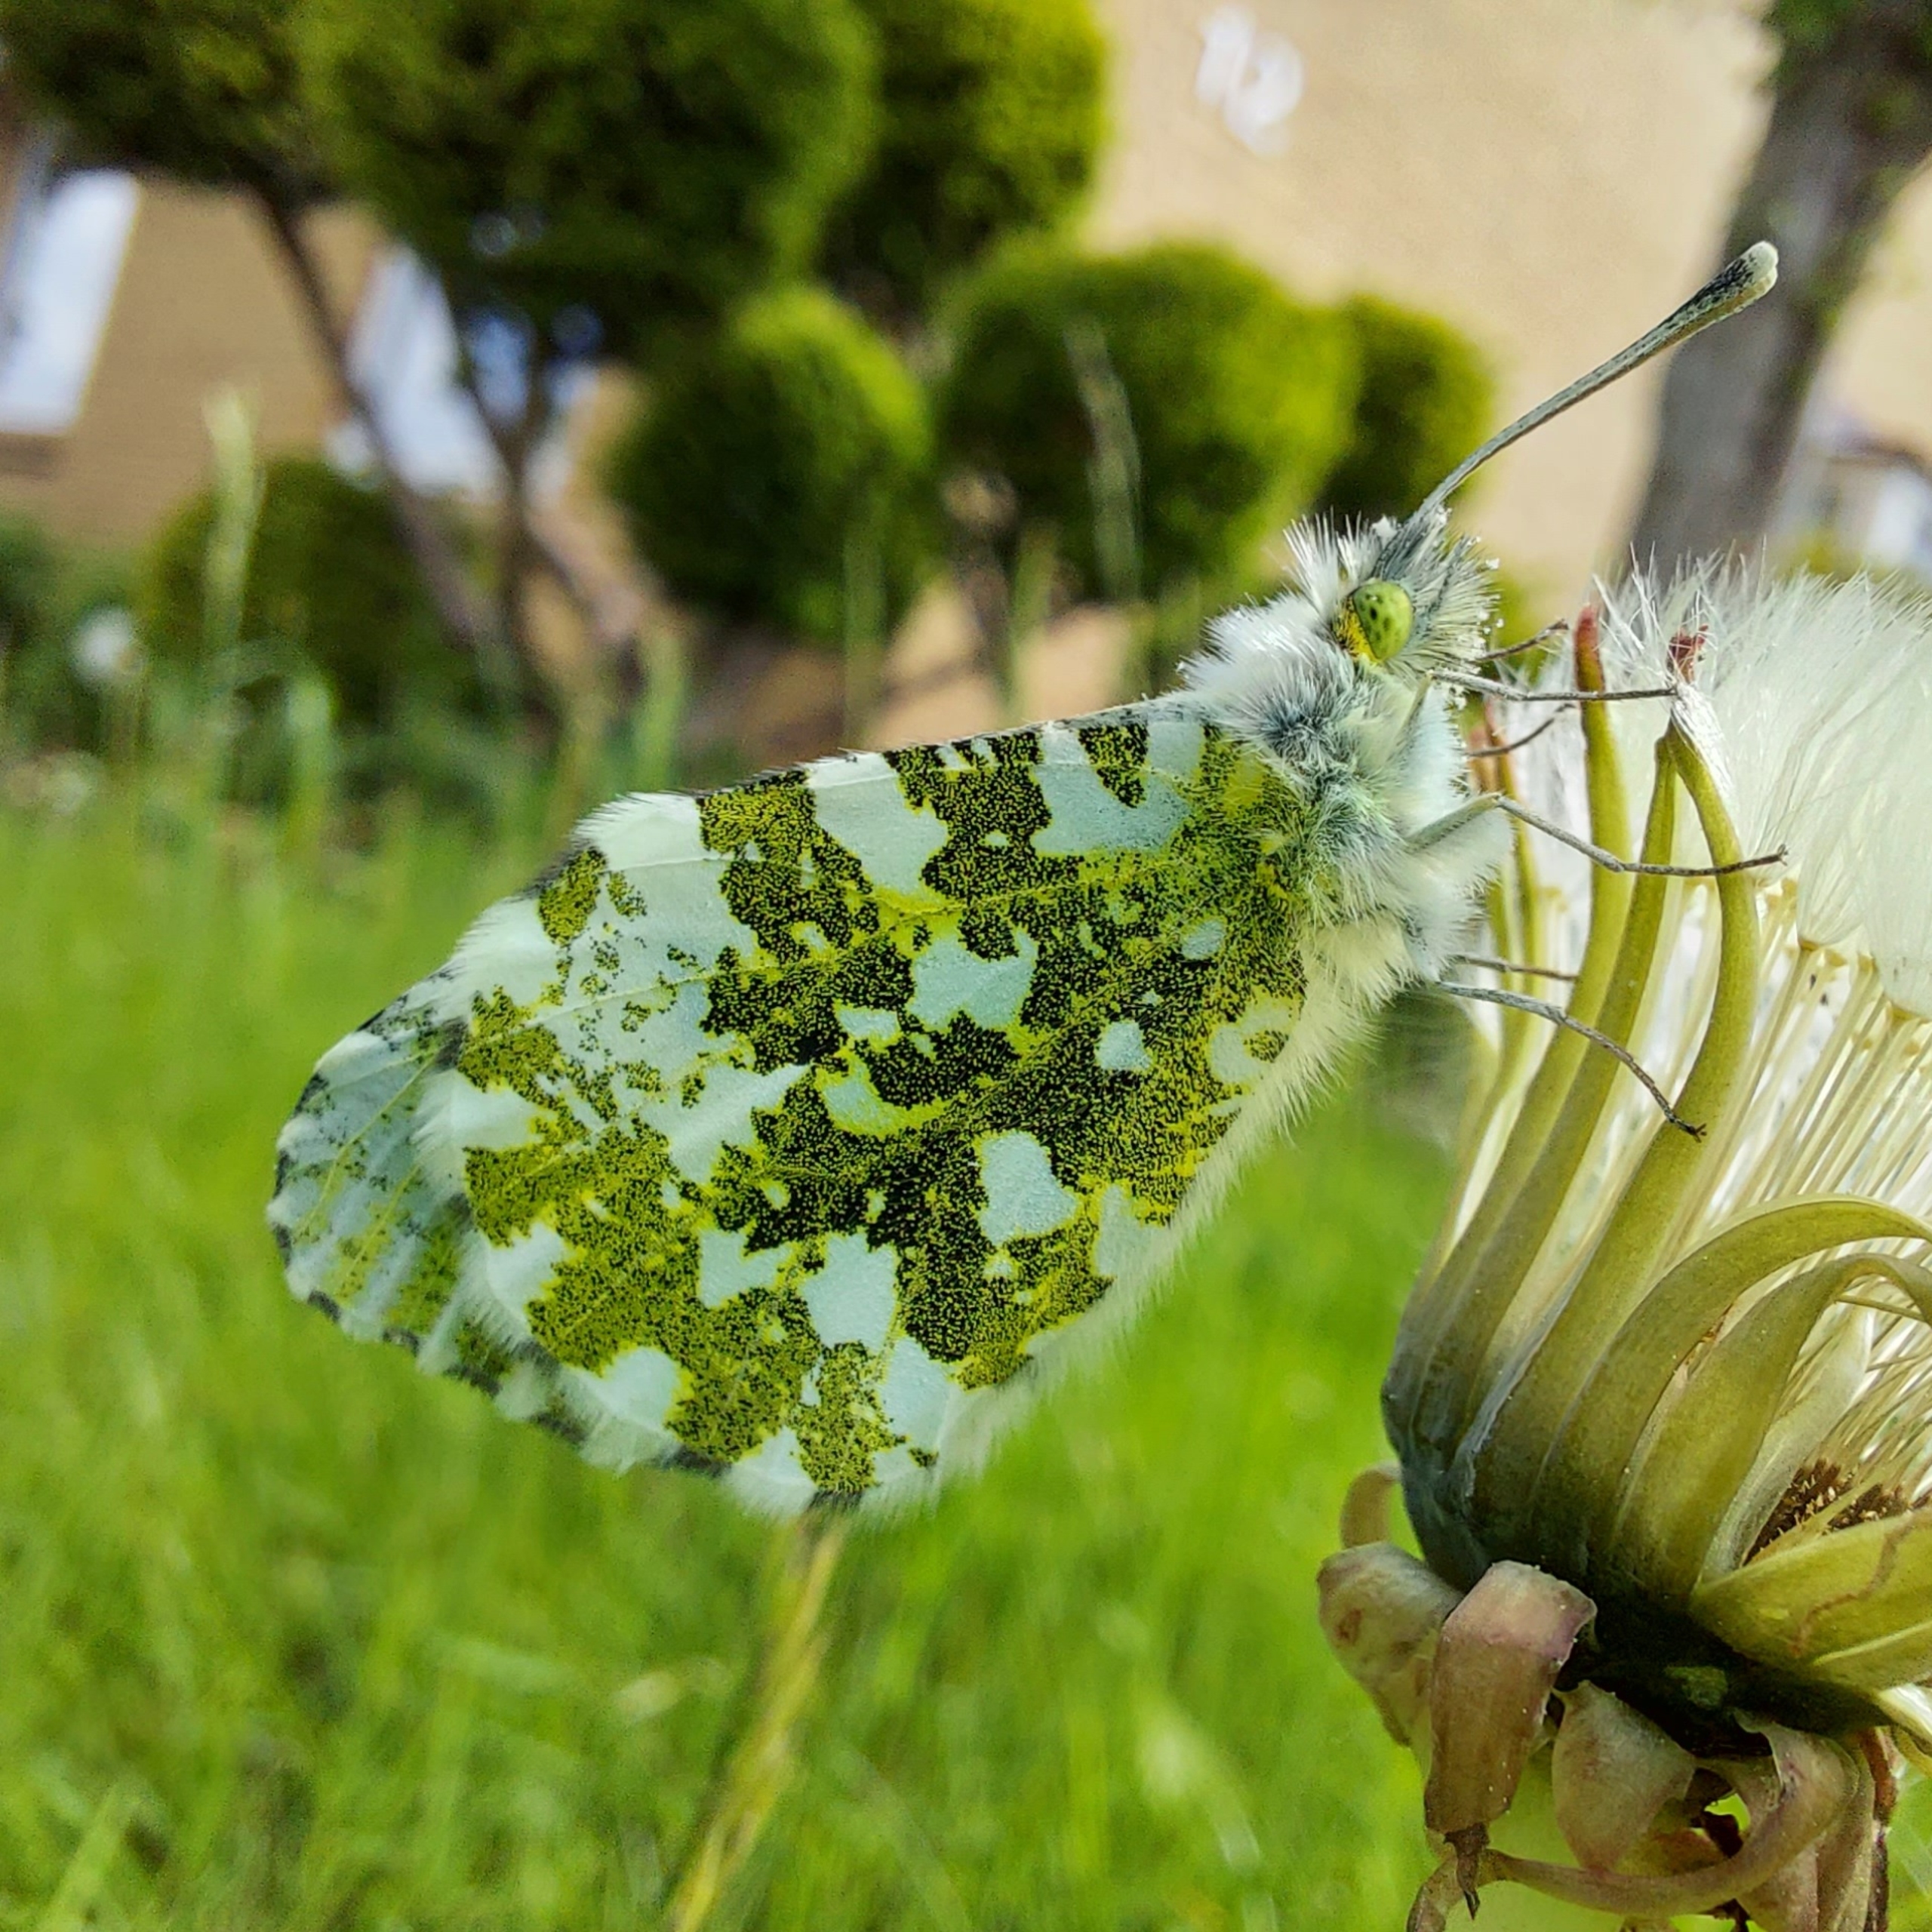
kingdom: Animalia
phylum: Arthropoda
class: Insecta
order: Lepidoptera
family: Pieridae
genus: Anthocharis
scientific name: Anthocharis cardamines
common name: Aurora
